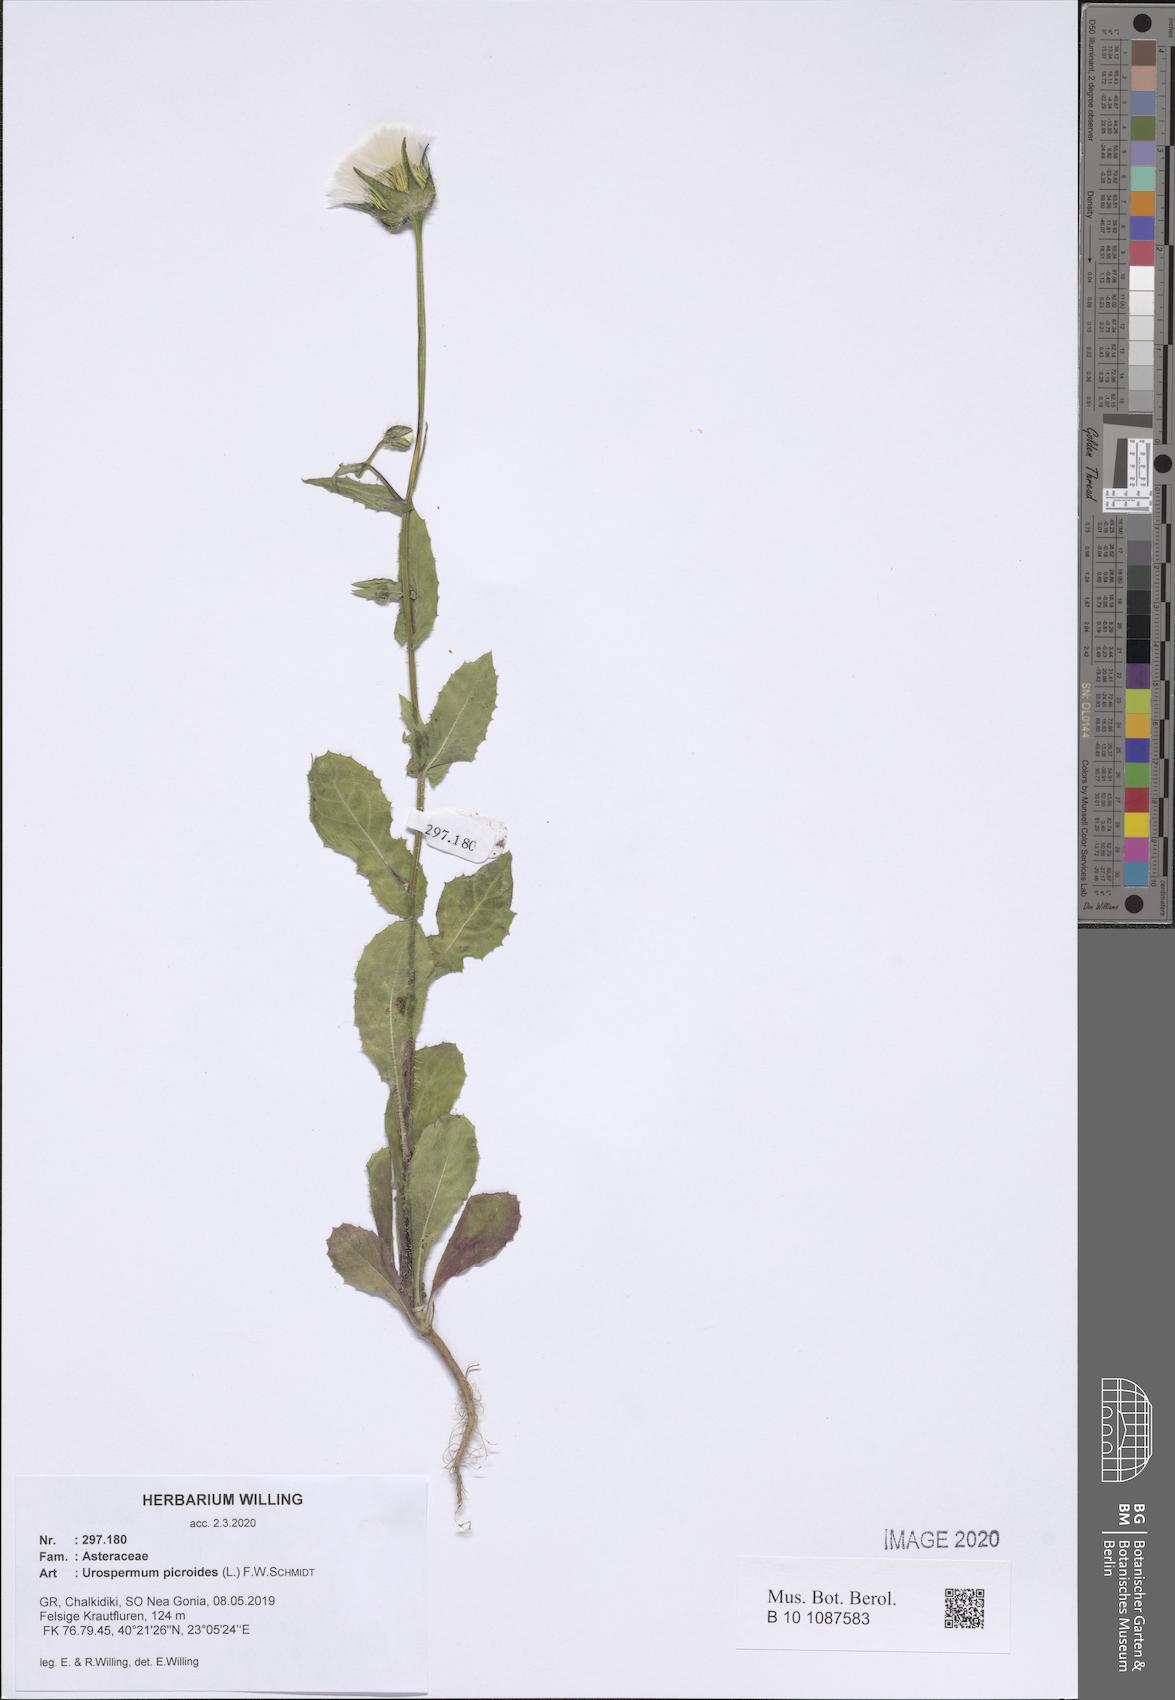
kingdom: Plantae
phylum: Tracheophyta
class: Magnoliopsida
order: Asterales
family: Asteraceae
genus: Urospermum
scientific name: Urospermum picroides
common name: False hawkbit
